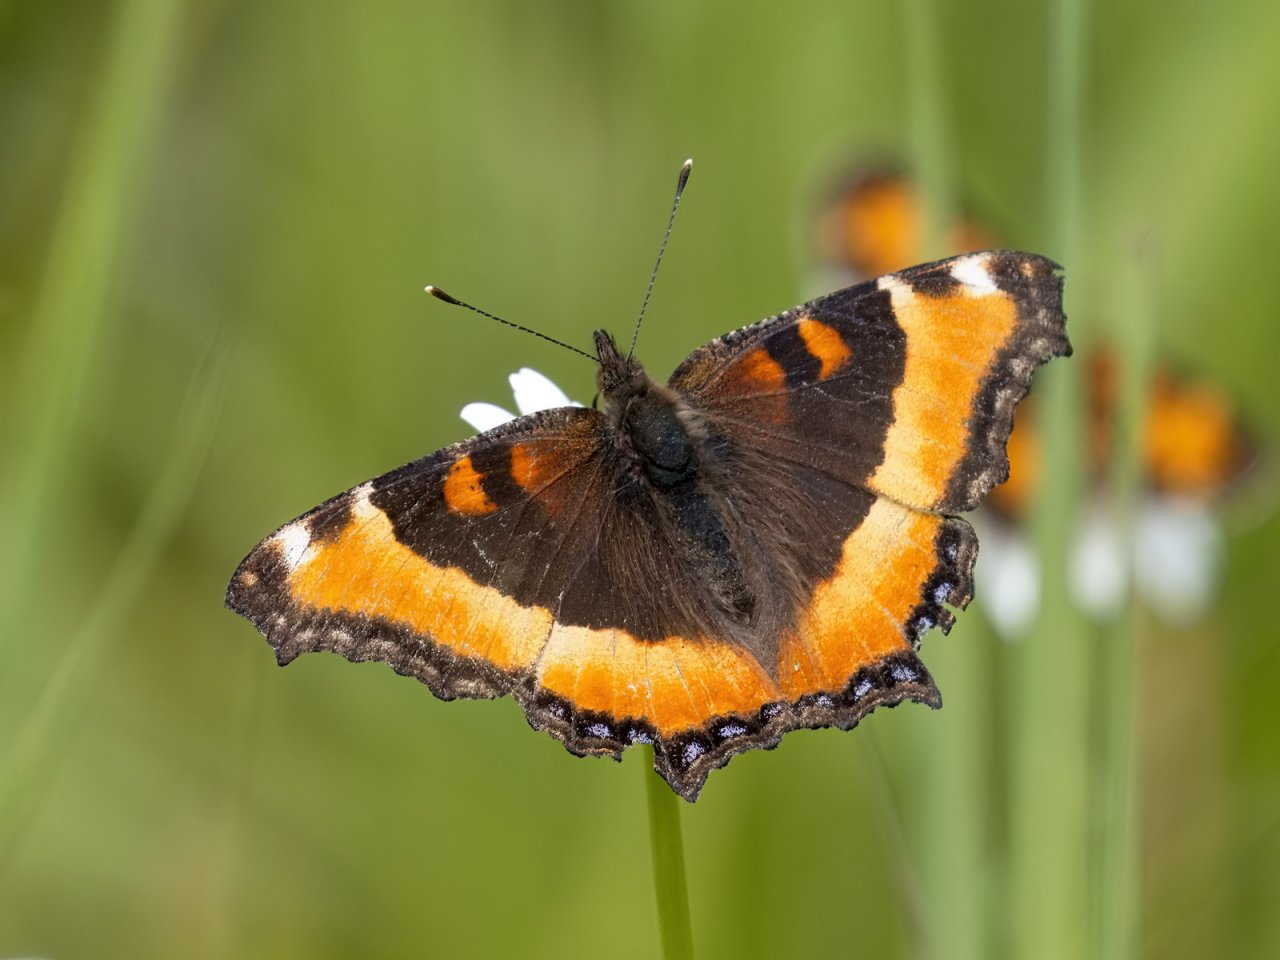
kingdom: Animalia
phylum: Arthropoda
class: Insecta
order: Lepidoptera
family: Nymphalidae
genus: Aglais
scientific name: Aglais milberti
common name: Milbert's Tortoiseshell
